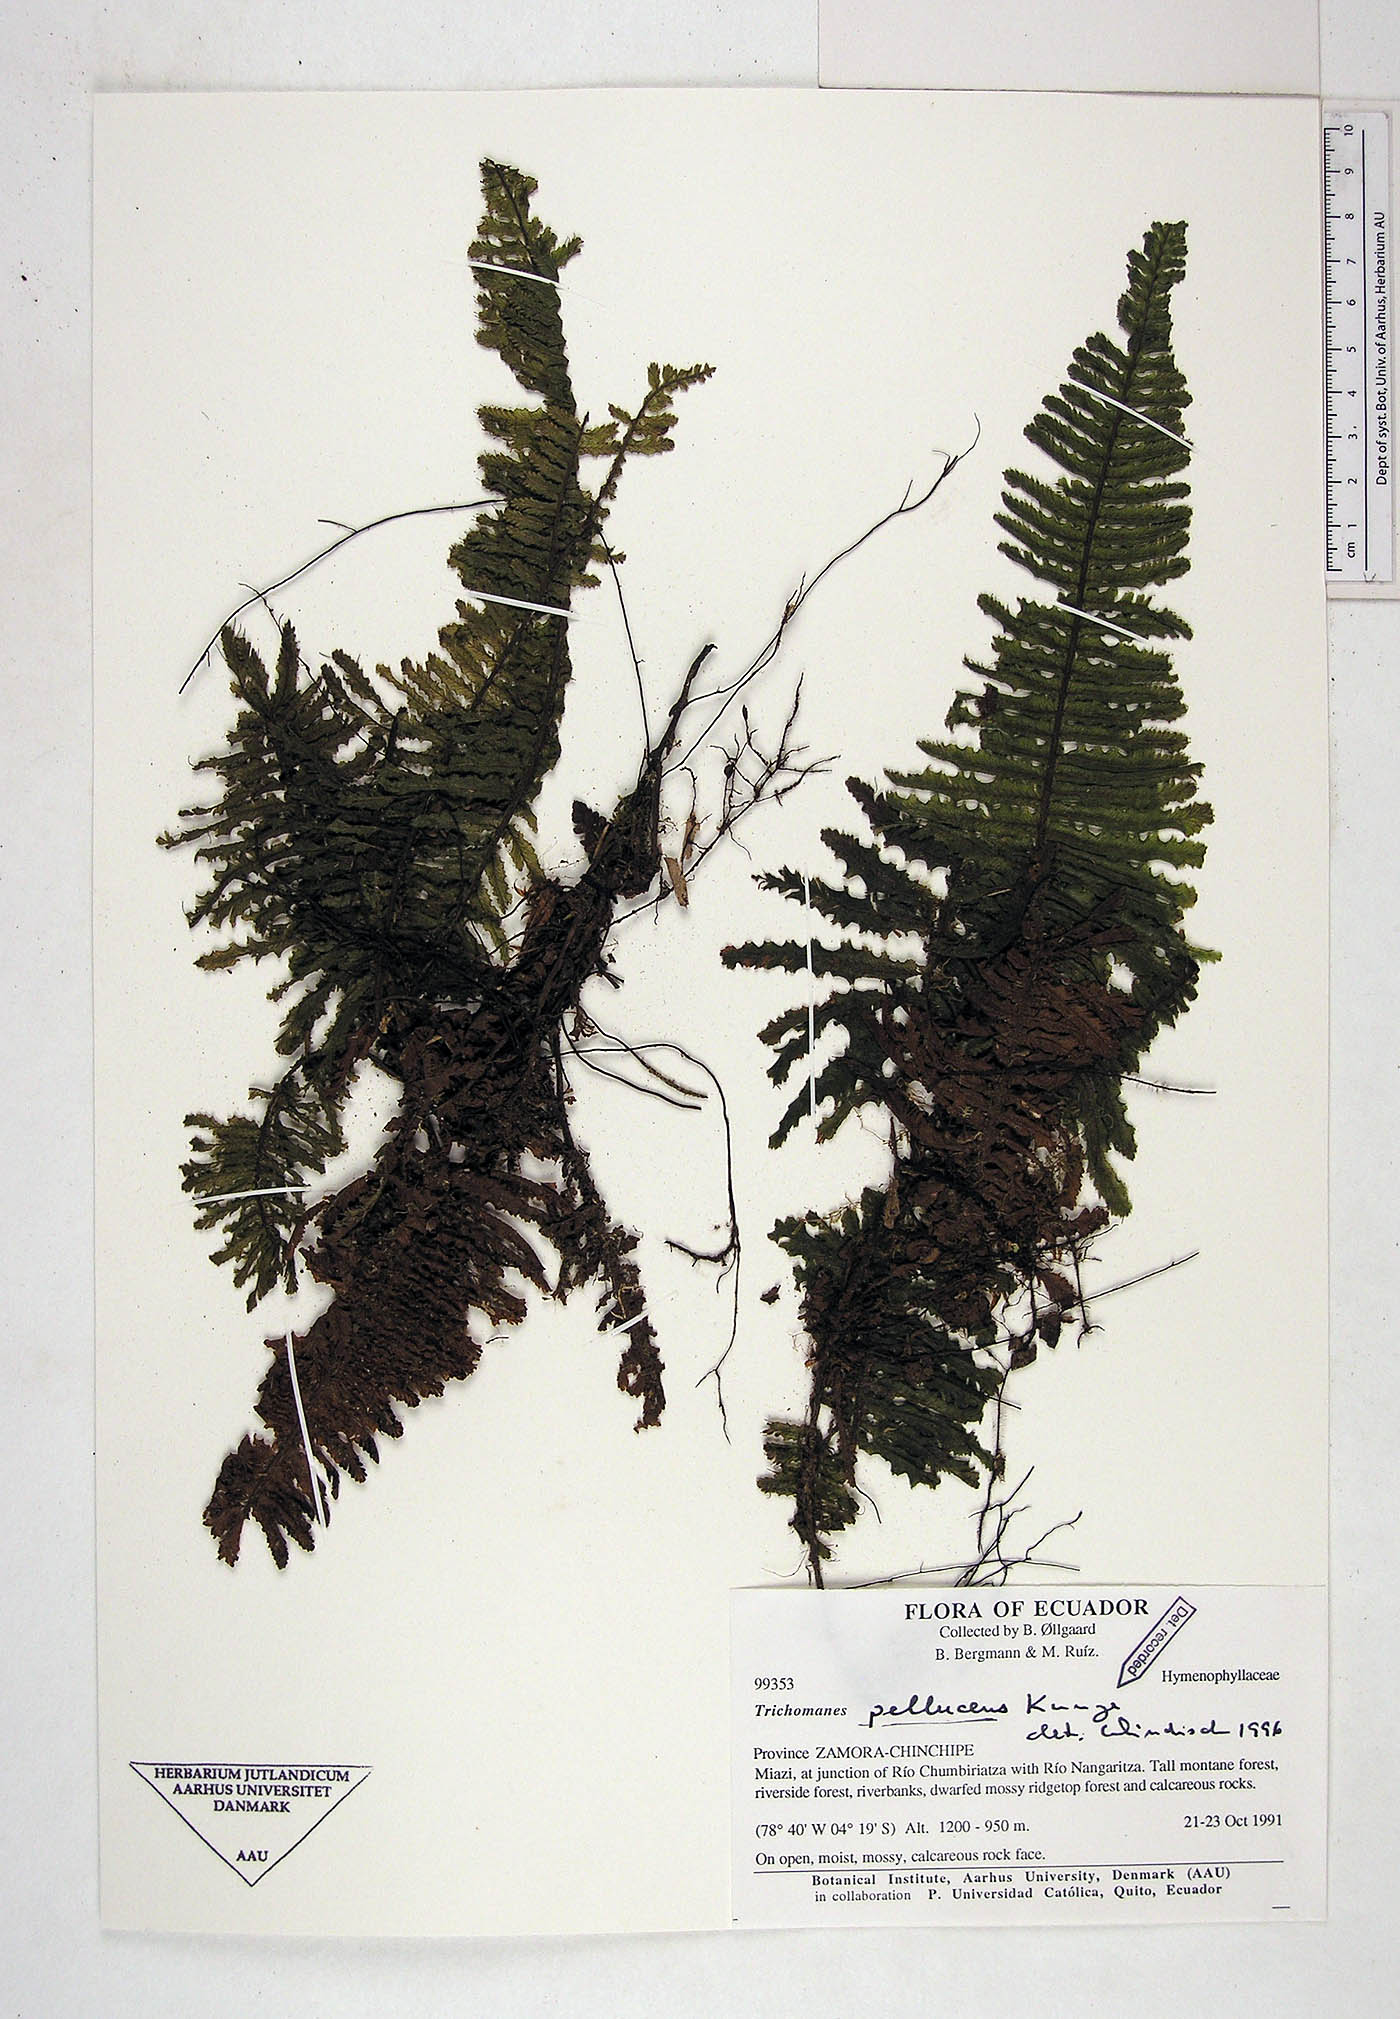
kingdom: Plantae
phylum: Tracheophyta
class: Polypodiopsida
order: Hymenophyllales
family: Hymenophyllaceae
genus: Trichomanes
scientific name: Trichomanes pellucens
